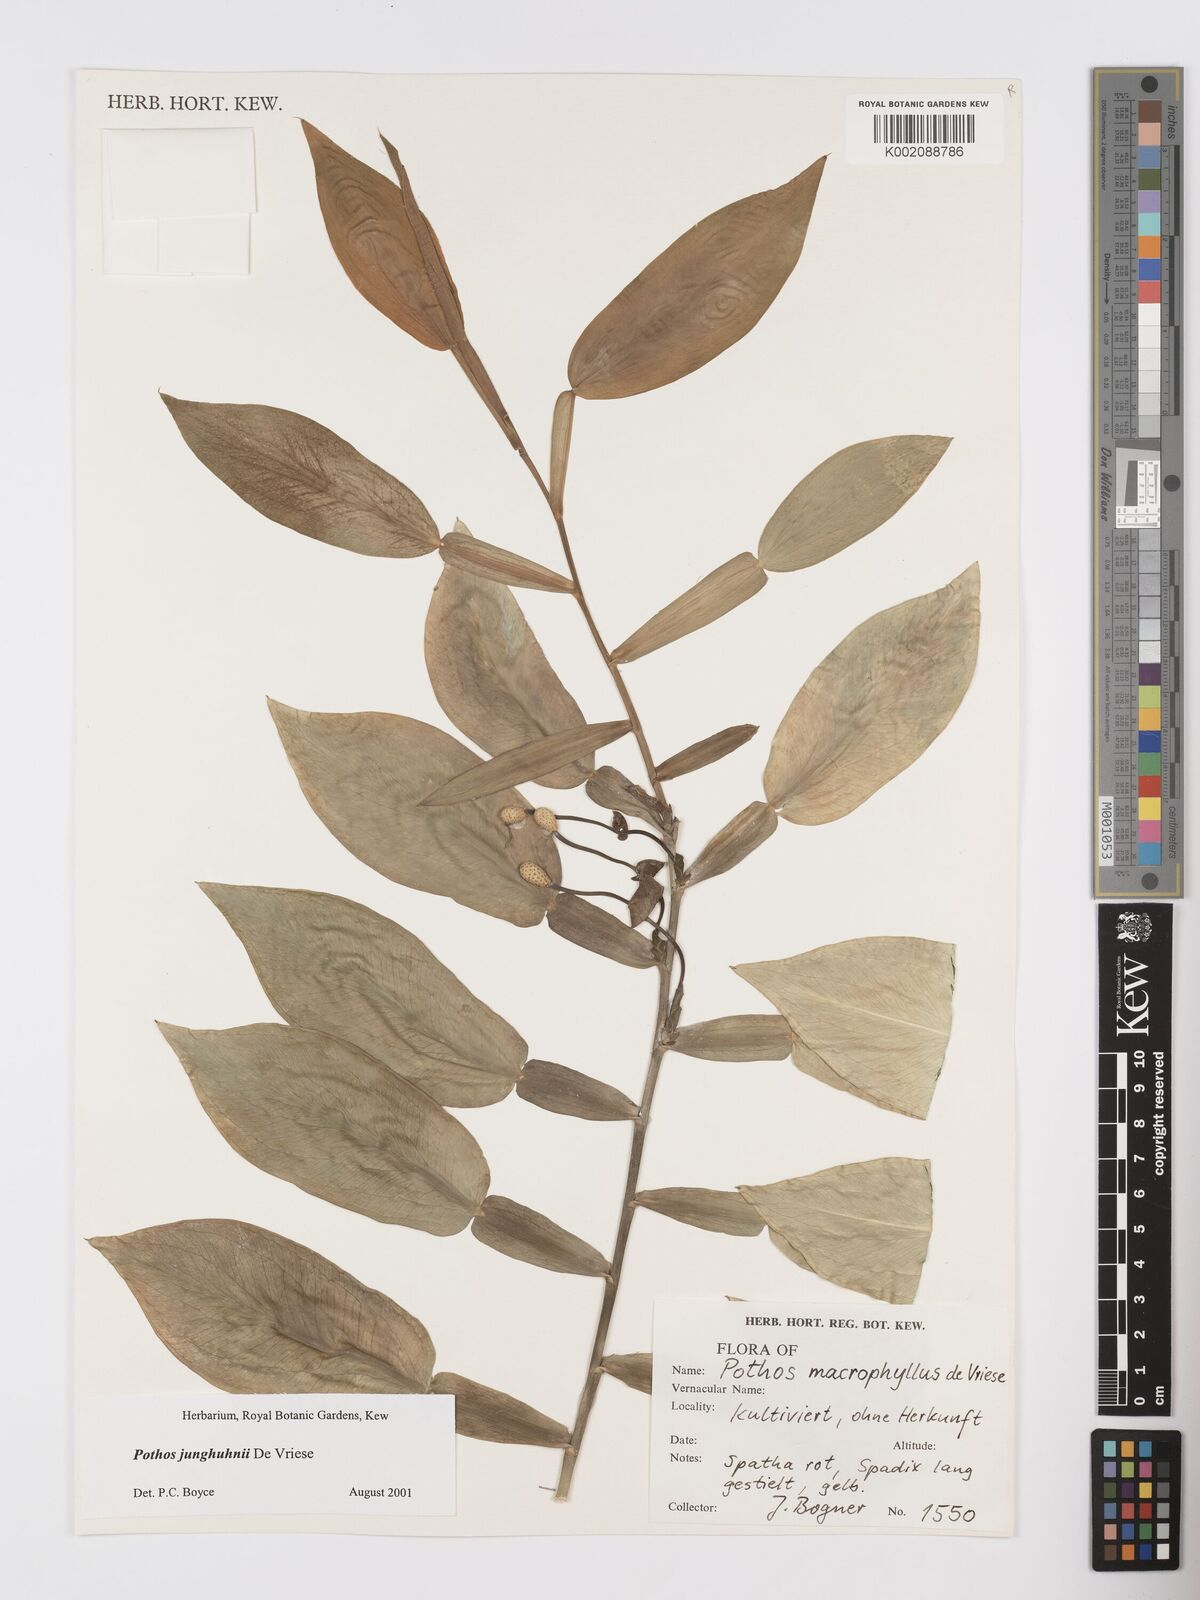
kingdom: Plantae
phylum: Tracheophyta
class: Liliopsida
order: Alismatales
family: Araceae
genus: Pothos
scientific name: Pothos junghuhnii
